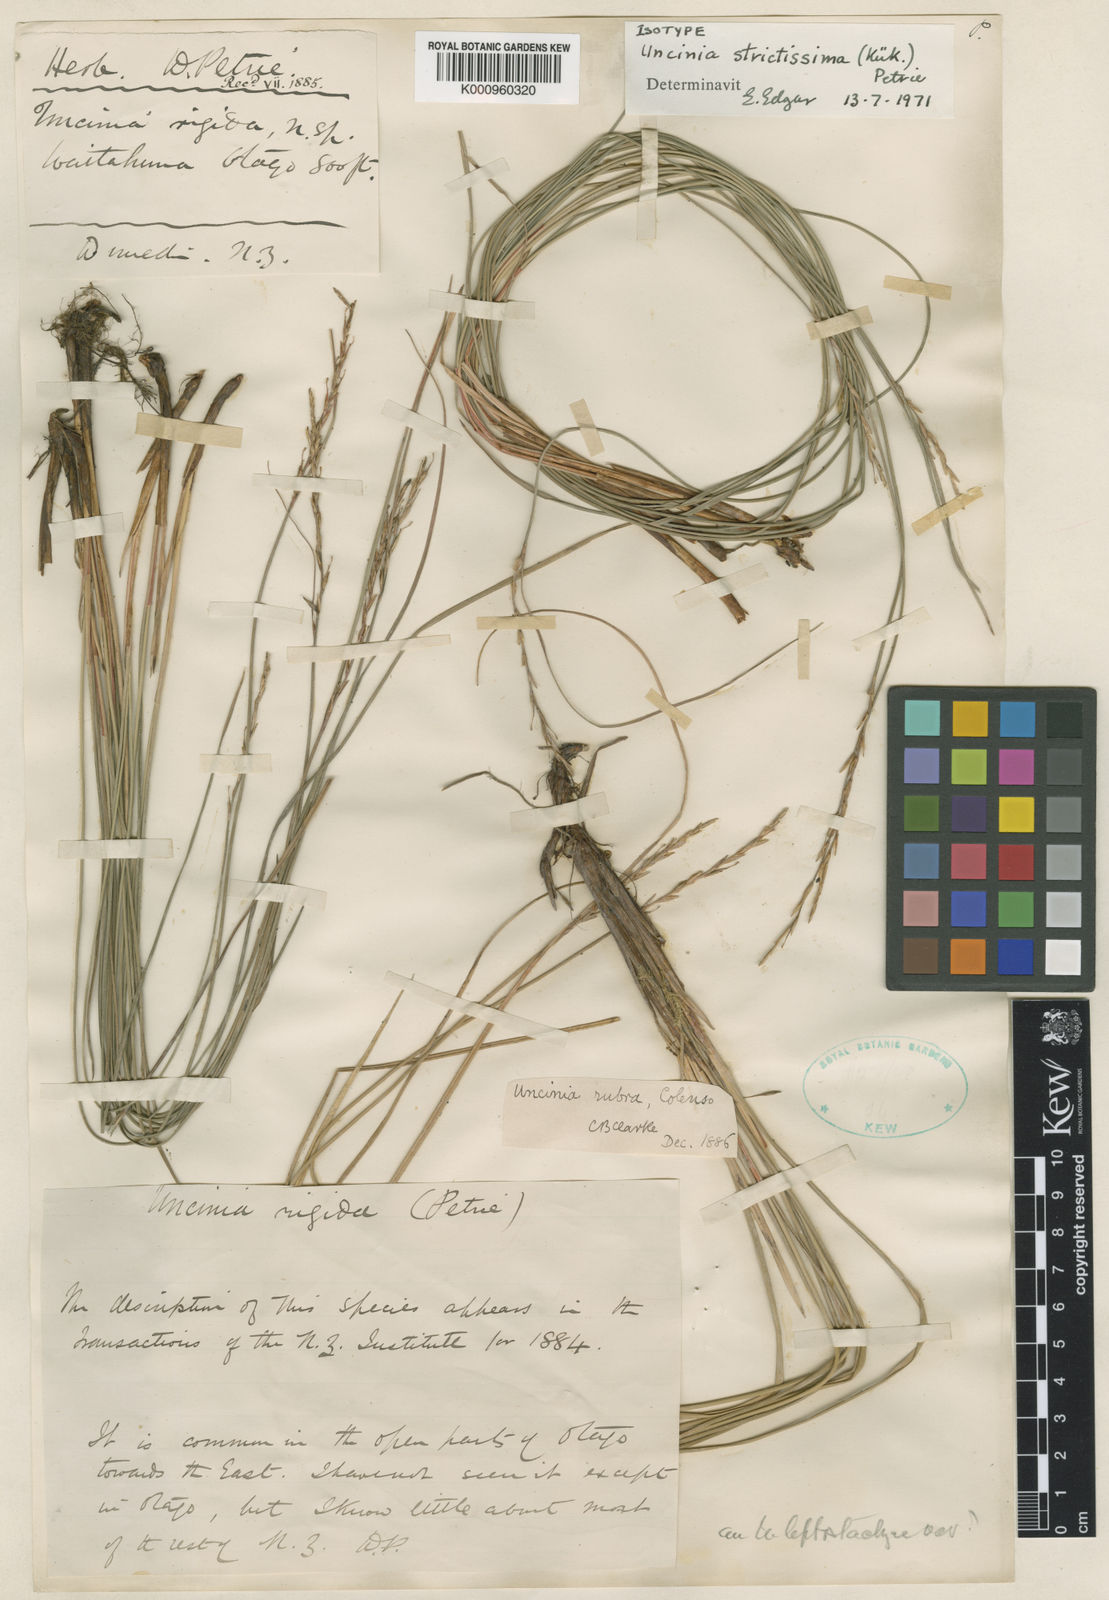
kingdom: Fungi
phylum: Ascomycota
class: Leotiomycetes
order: Helotiales
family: Hamatocanthoscyphaceae
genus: Uncinia
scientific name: Uncinia
